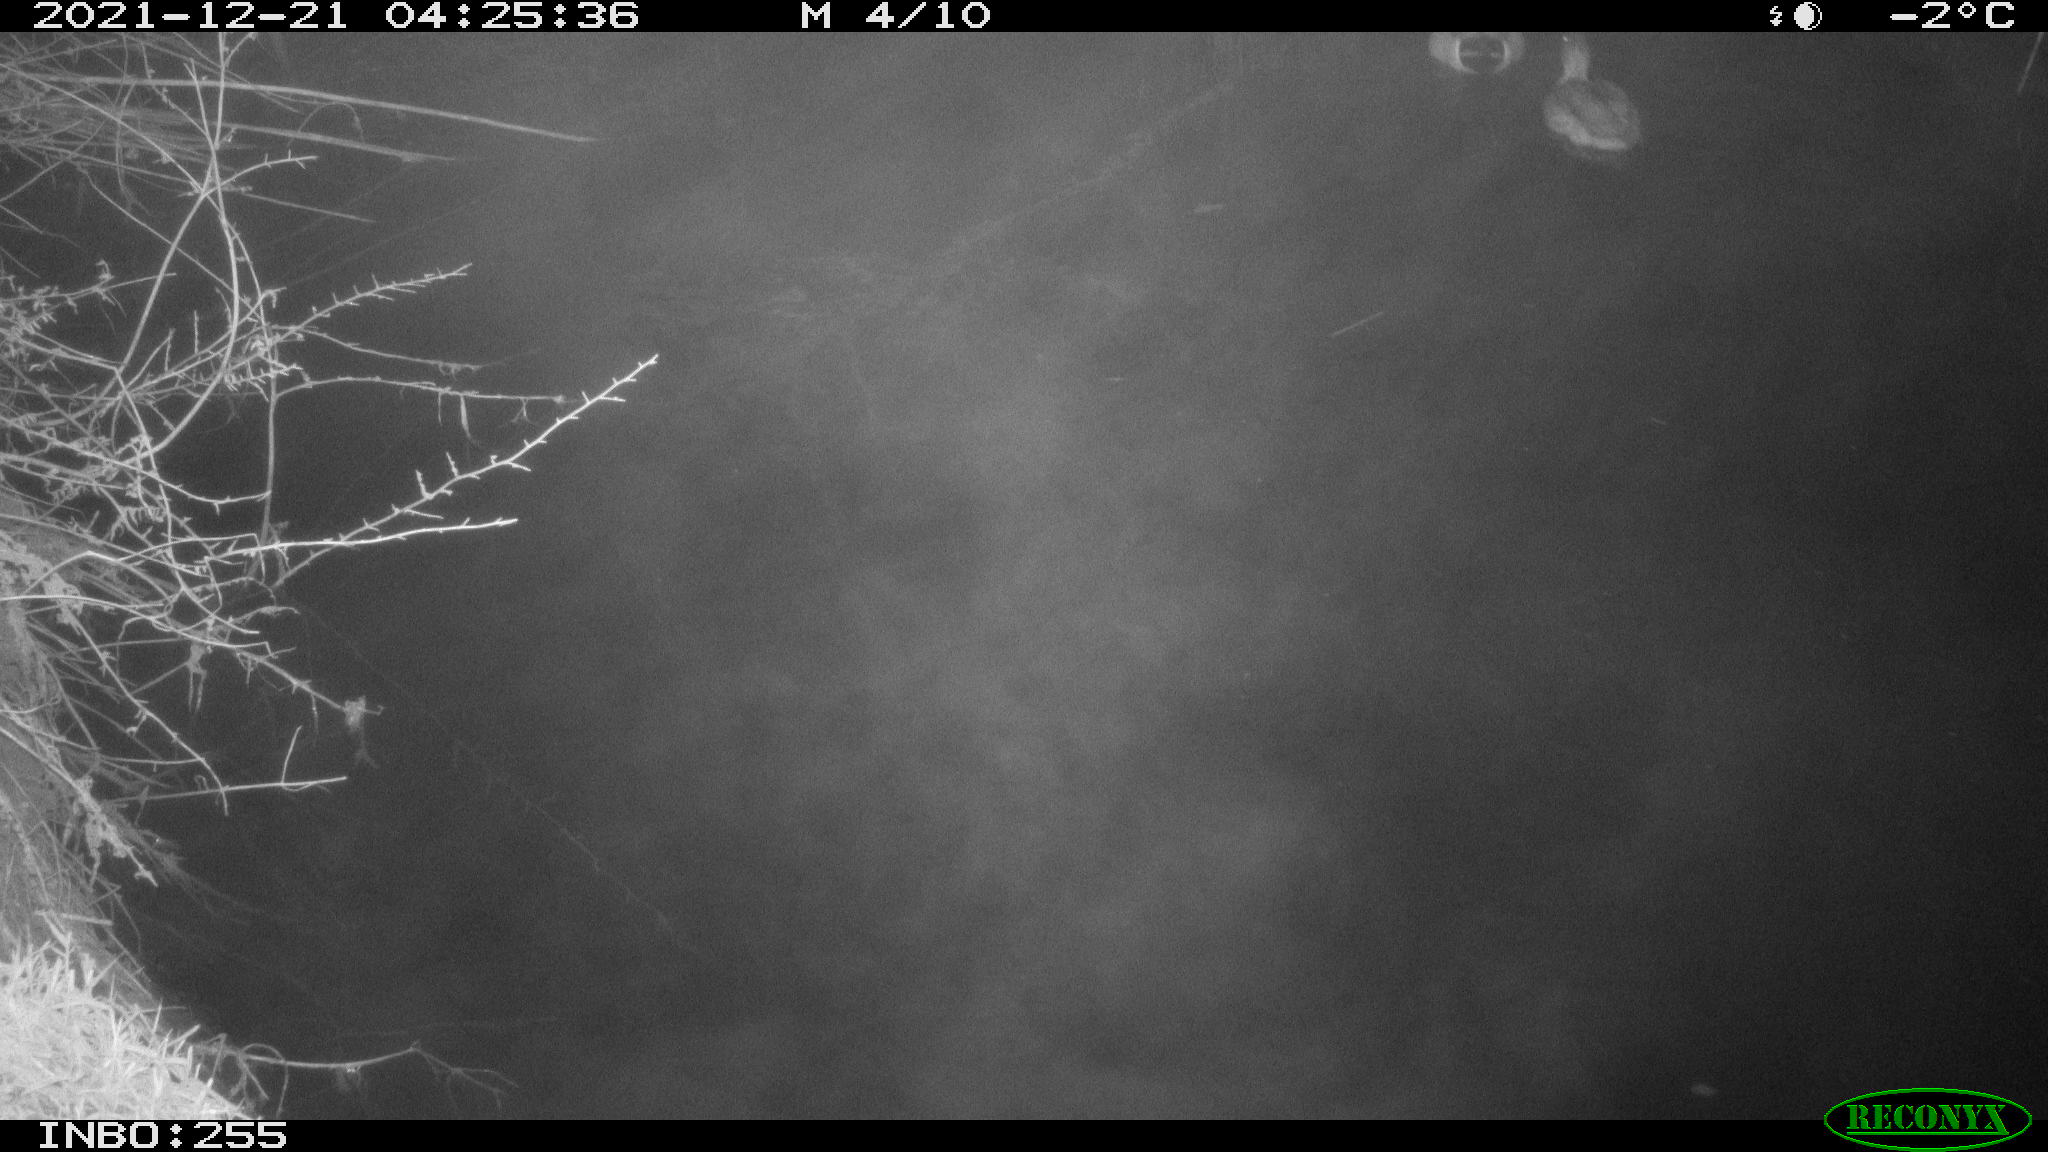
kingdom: Animalia
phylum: Chordata
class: Aves
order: Anseriformes
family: Anatidae
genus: Anas
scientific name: Anas
